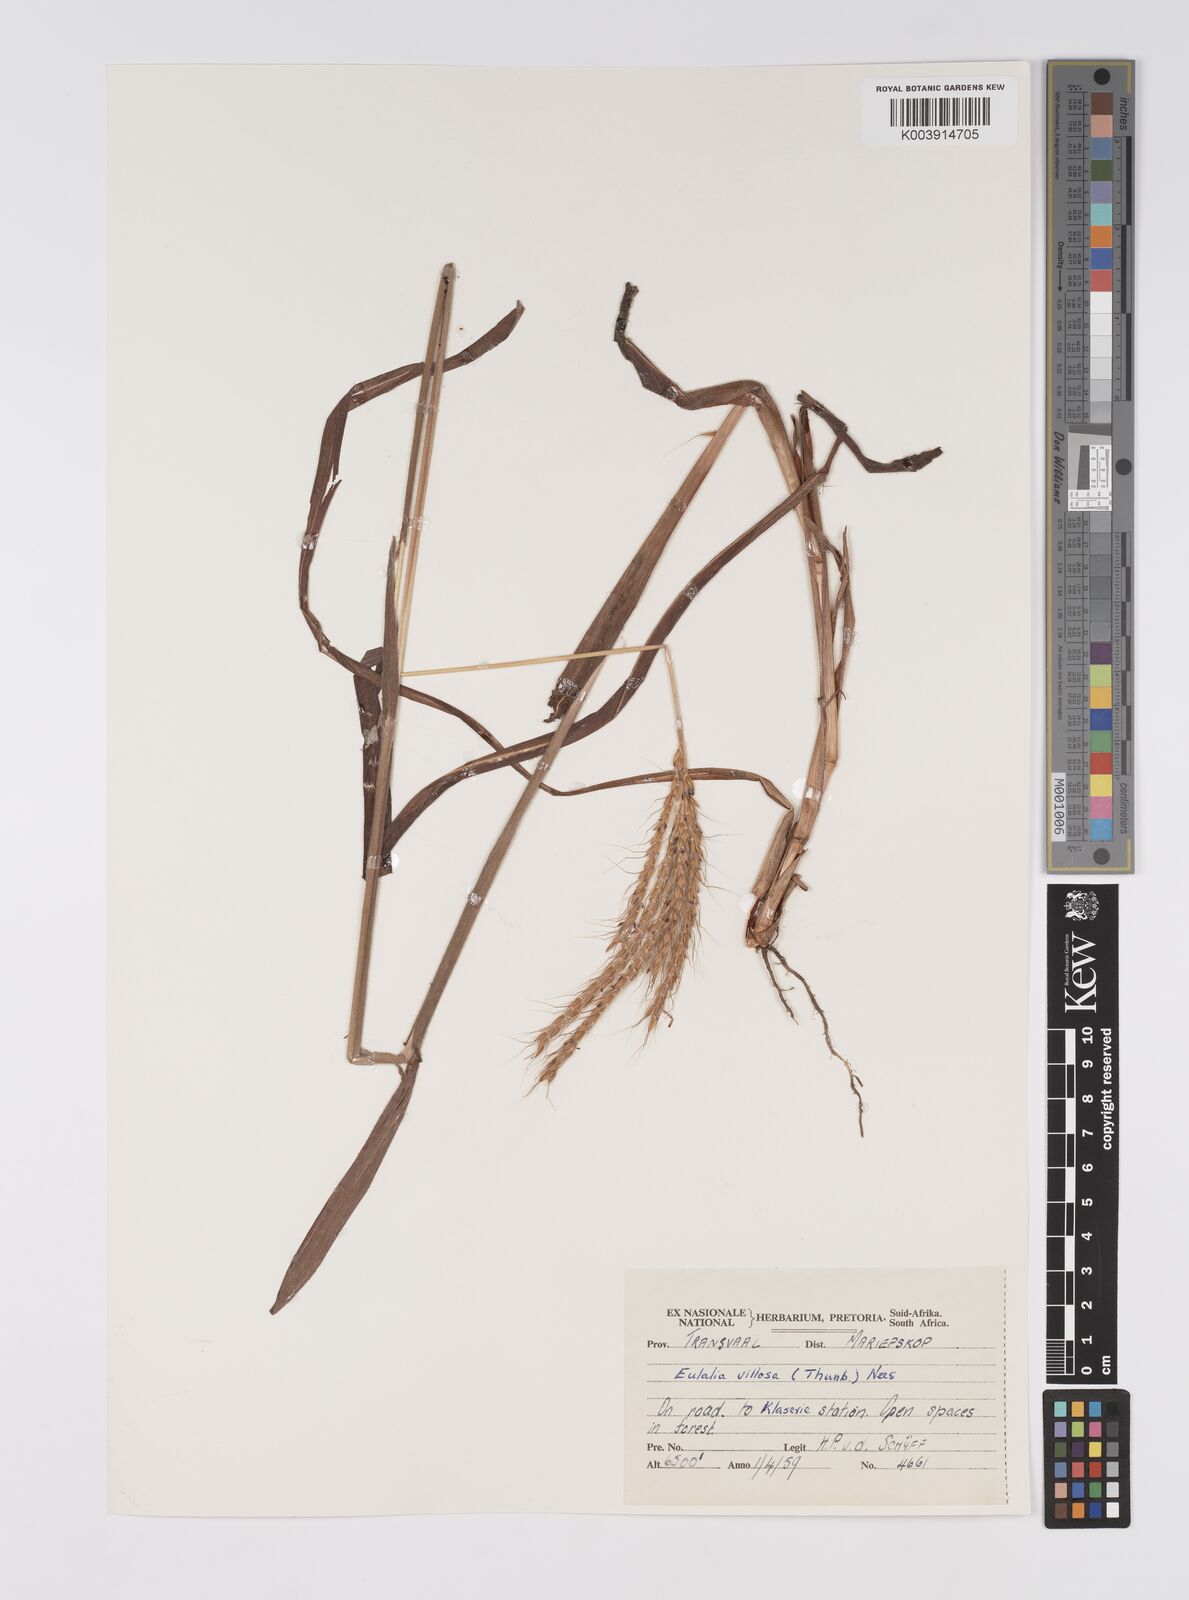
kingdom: Plantae
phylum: Tracheophyta
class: Liliopsida
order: Poales
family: Poaceae
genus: Eulalia
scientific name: Eulalia villosa
